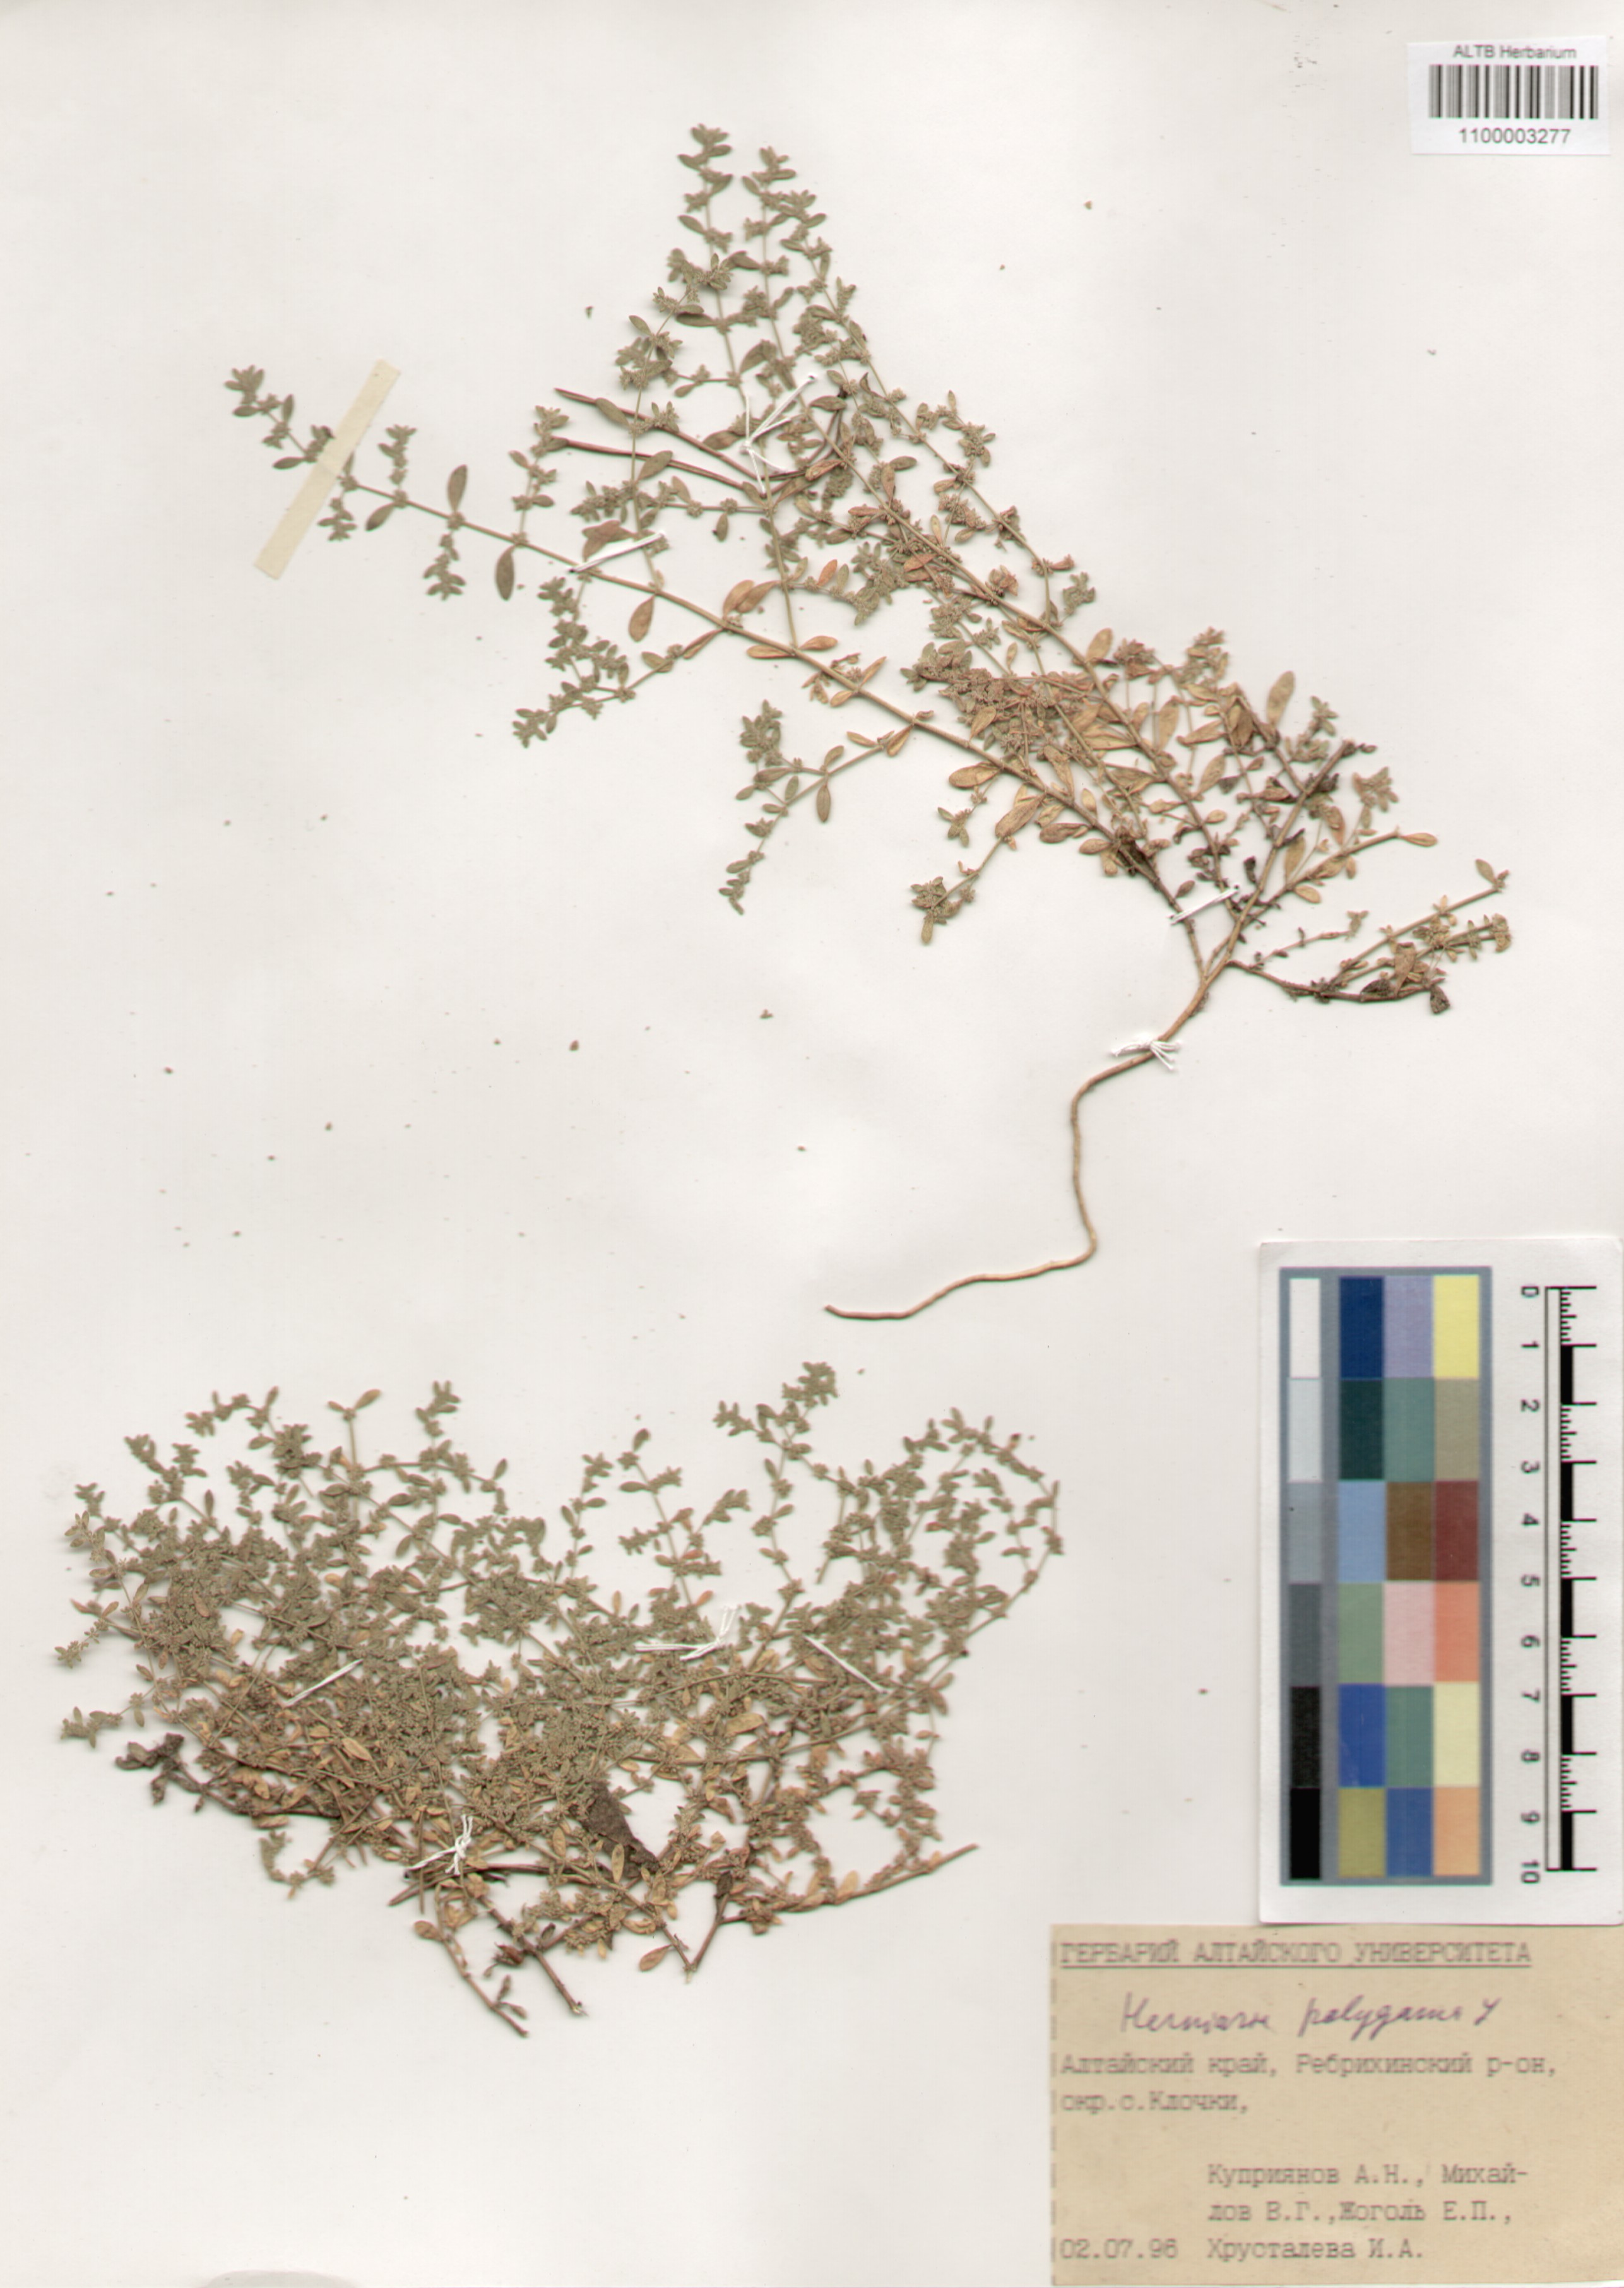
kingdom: Plantae
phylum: Tracheophyta
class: Magnoliopsida
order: Caryophyllales
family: Caryophyllaceae
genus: Herniaria
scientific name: Herniaria polygama
